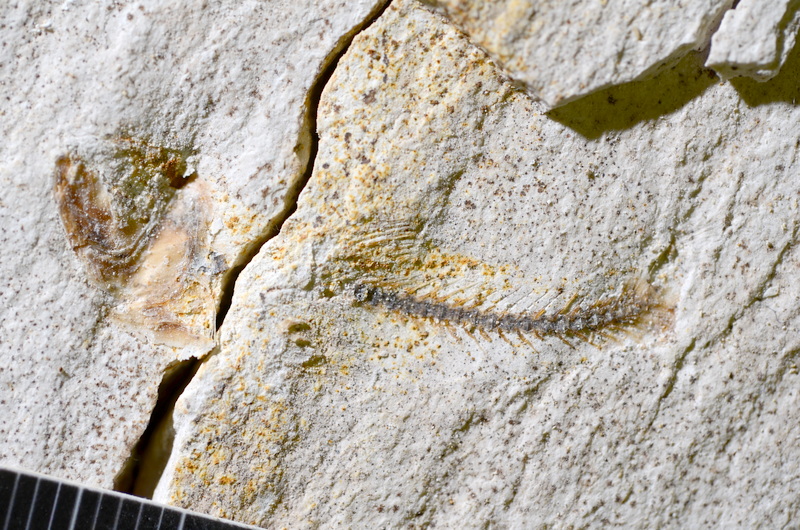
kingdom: Animalia
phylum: Chordata
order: Salmoniformes
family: Orthogonikleithridae
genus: Orthogonikleithrus
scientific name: Orthogonikleithrus hoelli
